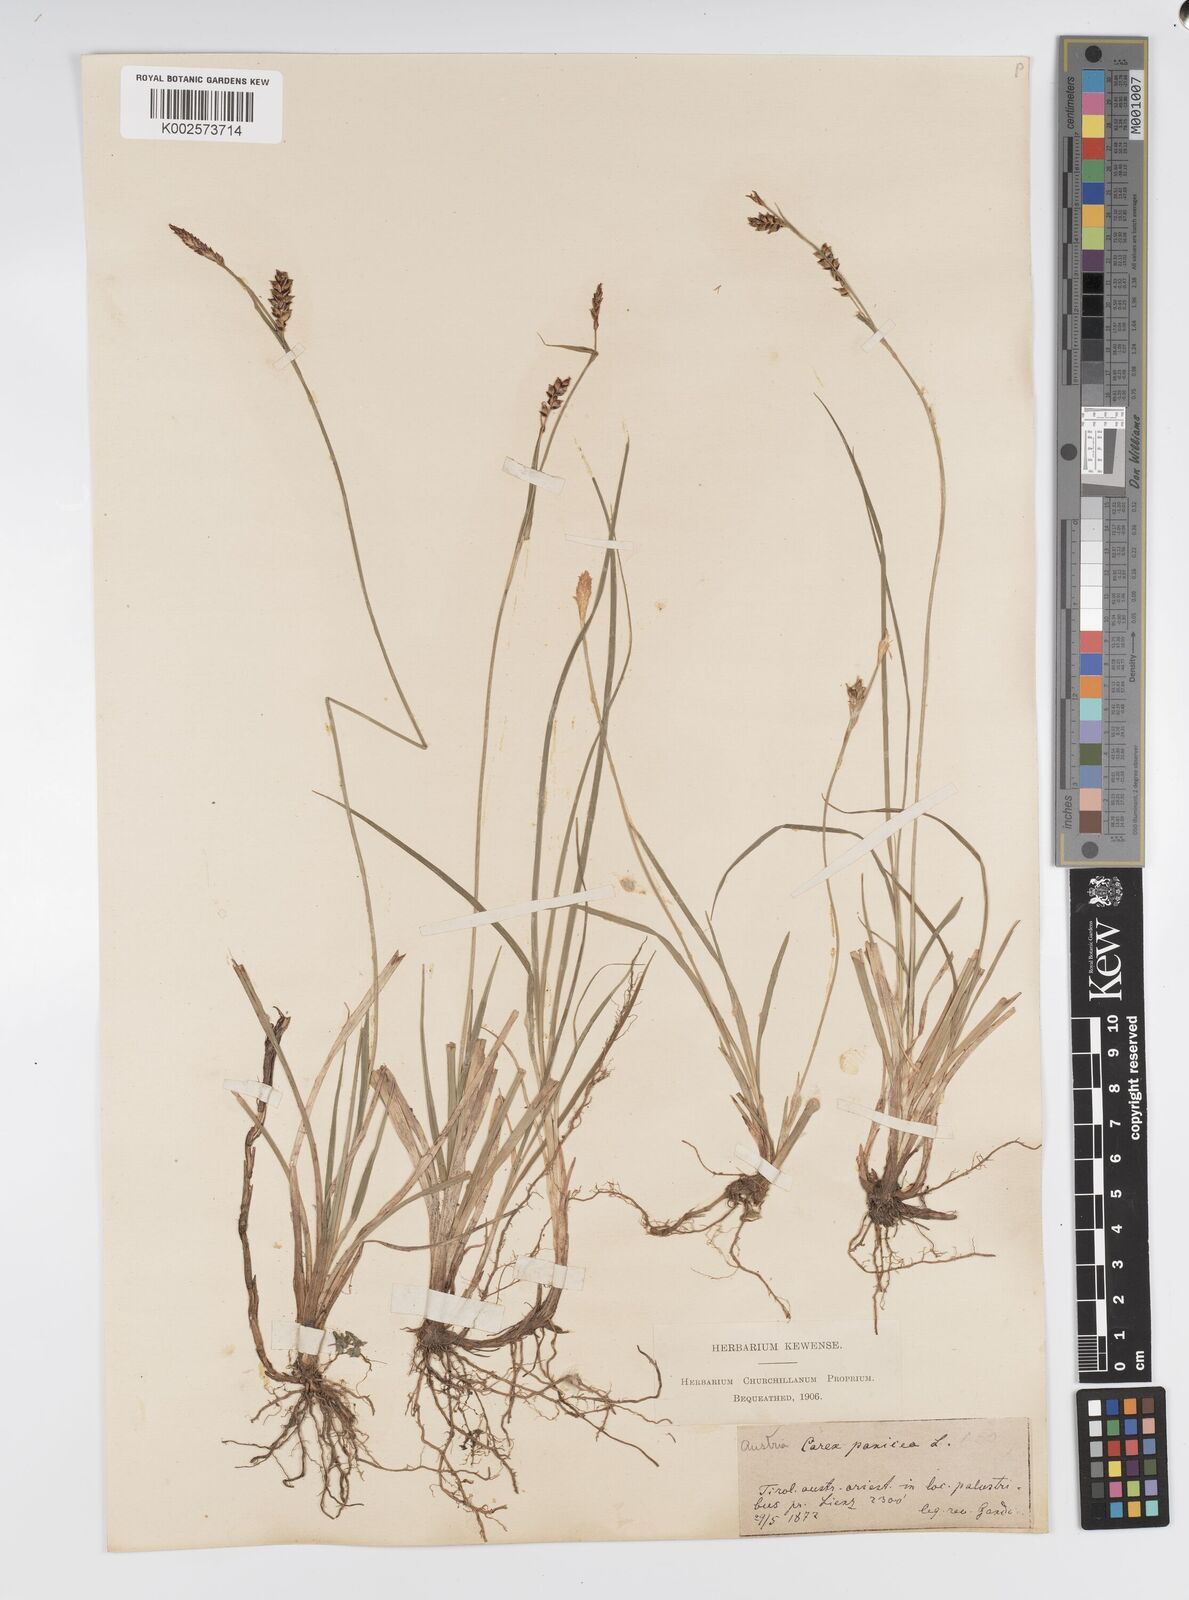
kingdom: Plantae
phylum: Tracheophyta
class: Liliopsida
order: Poales
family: Cyperaceae
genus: Carex
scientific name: Carex panicea
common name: Carnation sedge
